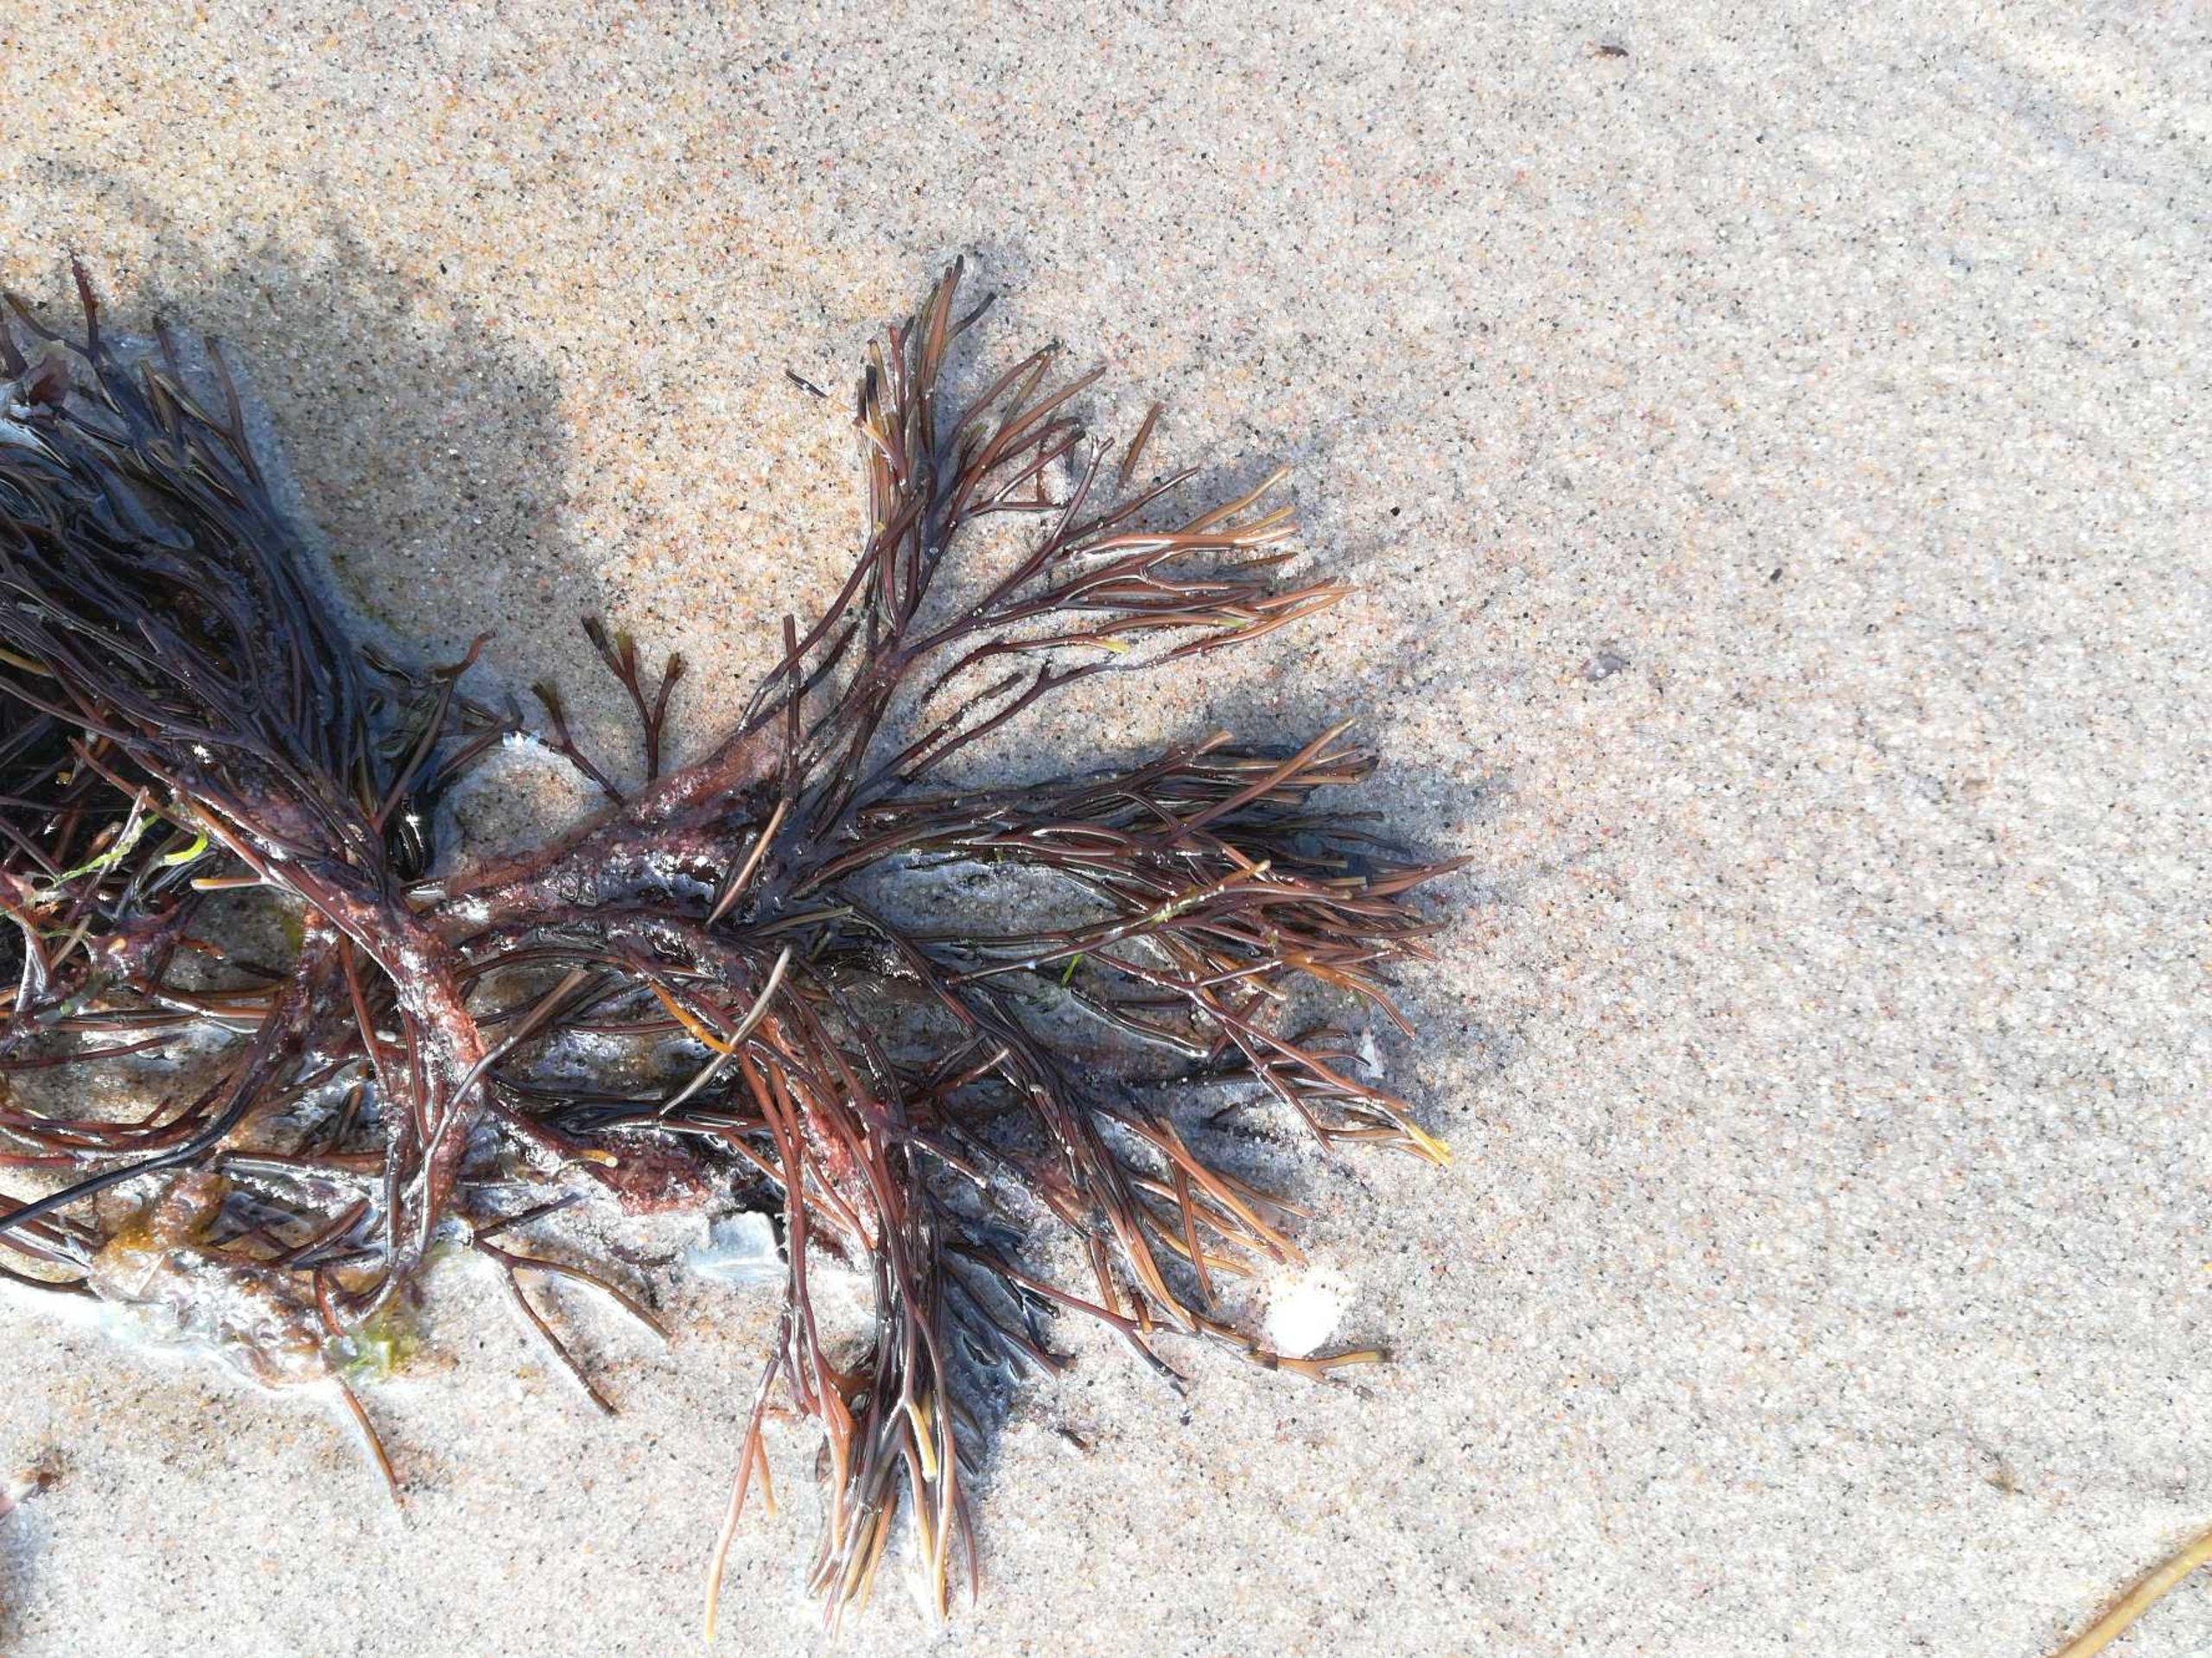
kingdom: Plantae
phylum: Rhodophyta
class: Florideophyceae
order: Gigartinales
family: Furcellariaceae
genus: Furcellaria
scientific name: Furcellaria lumbricalis
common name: Gaffeltang
